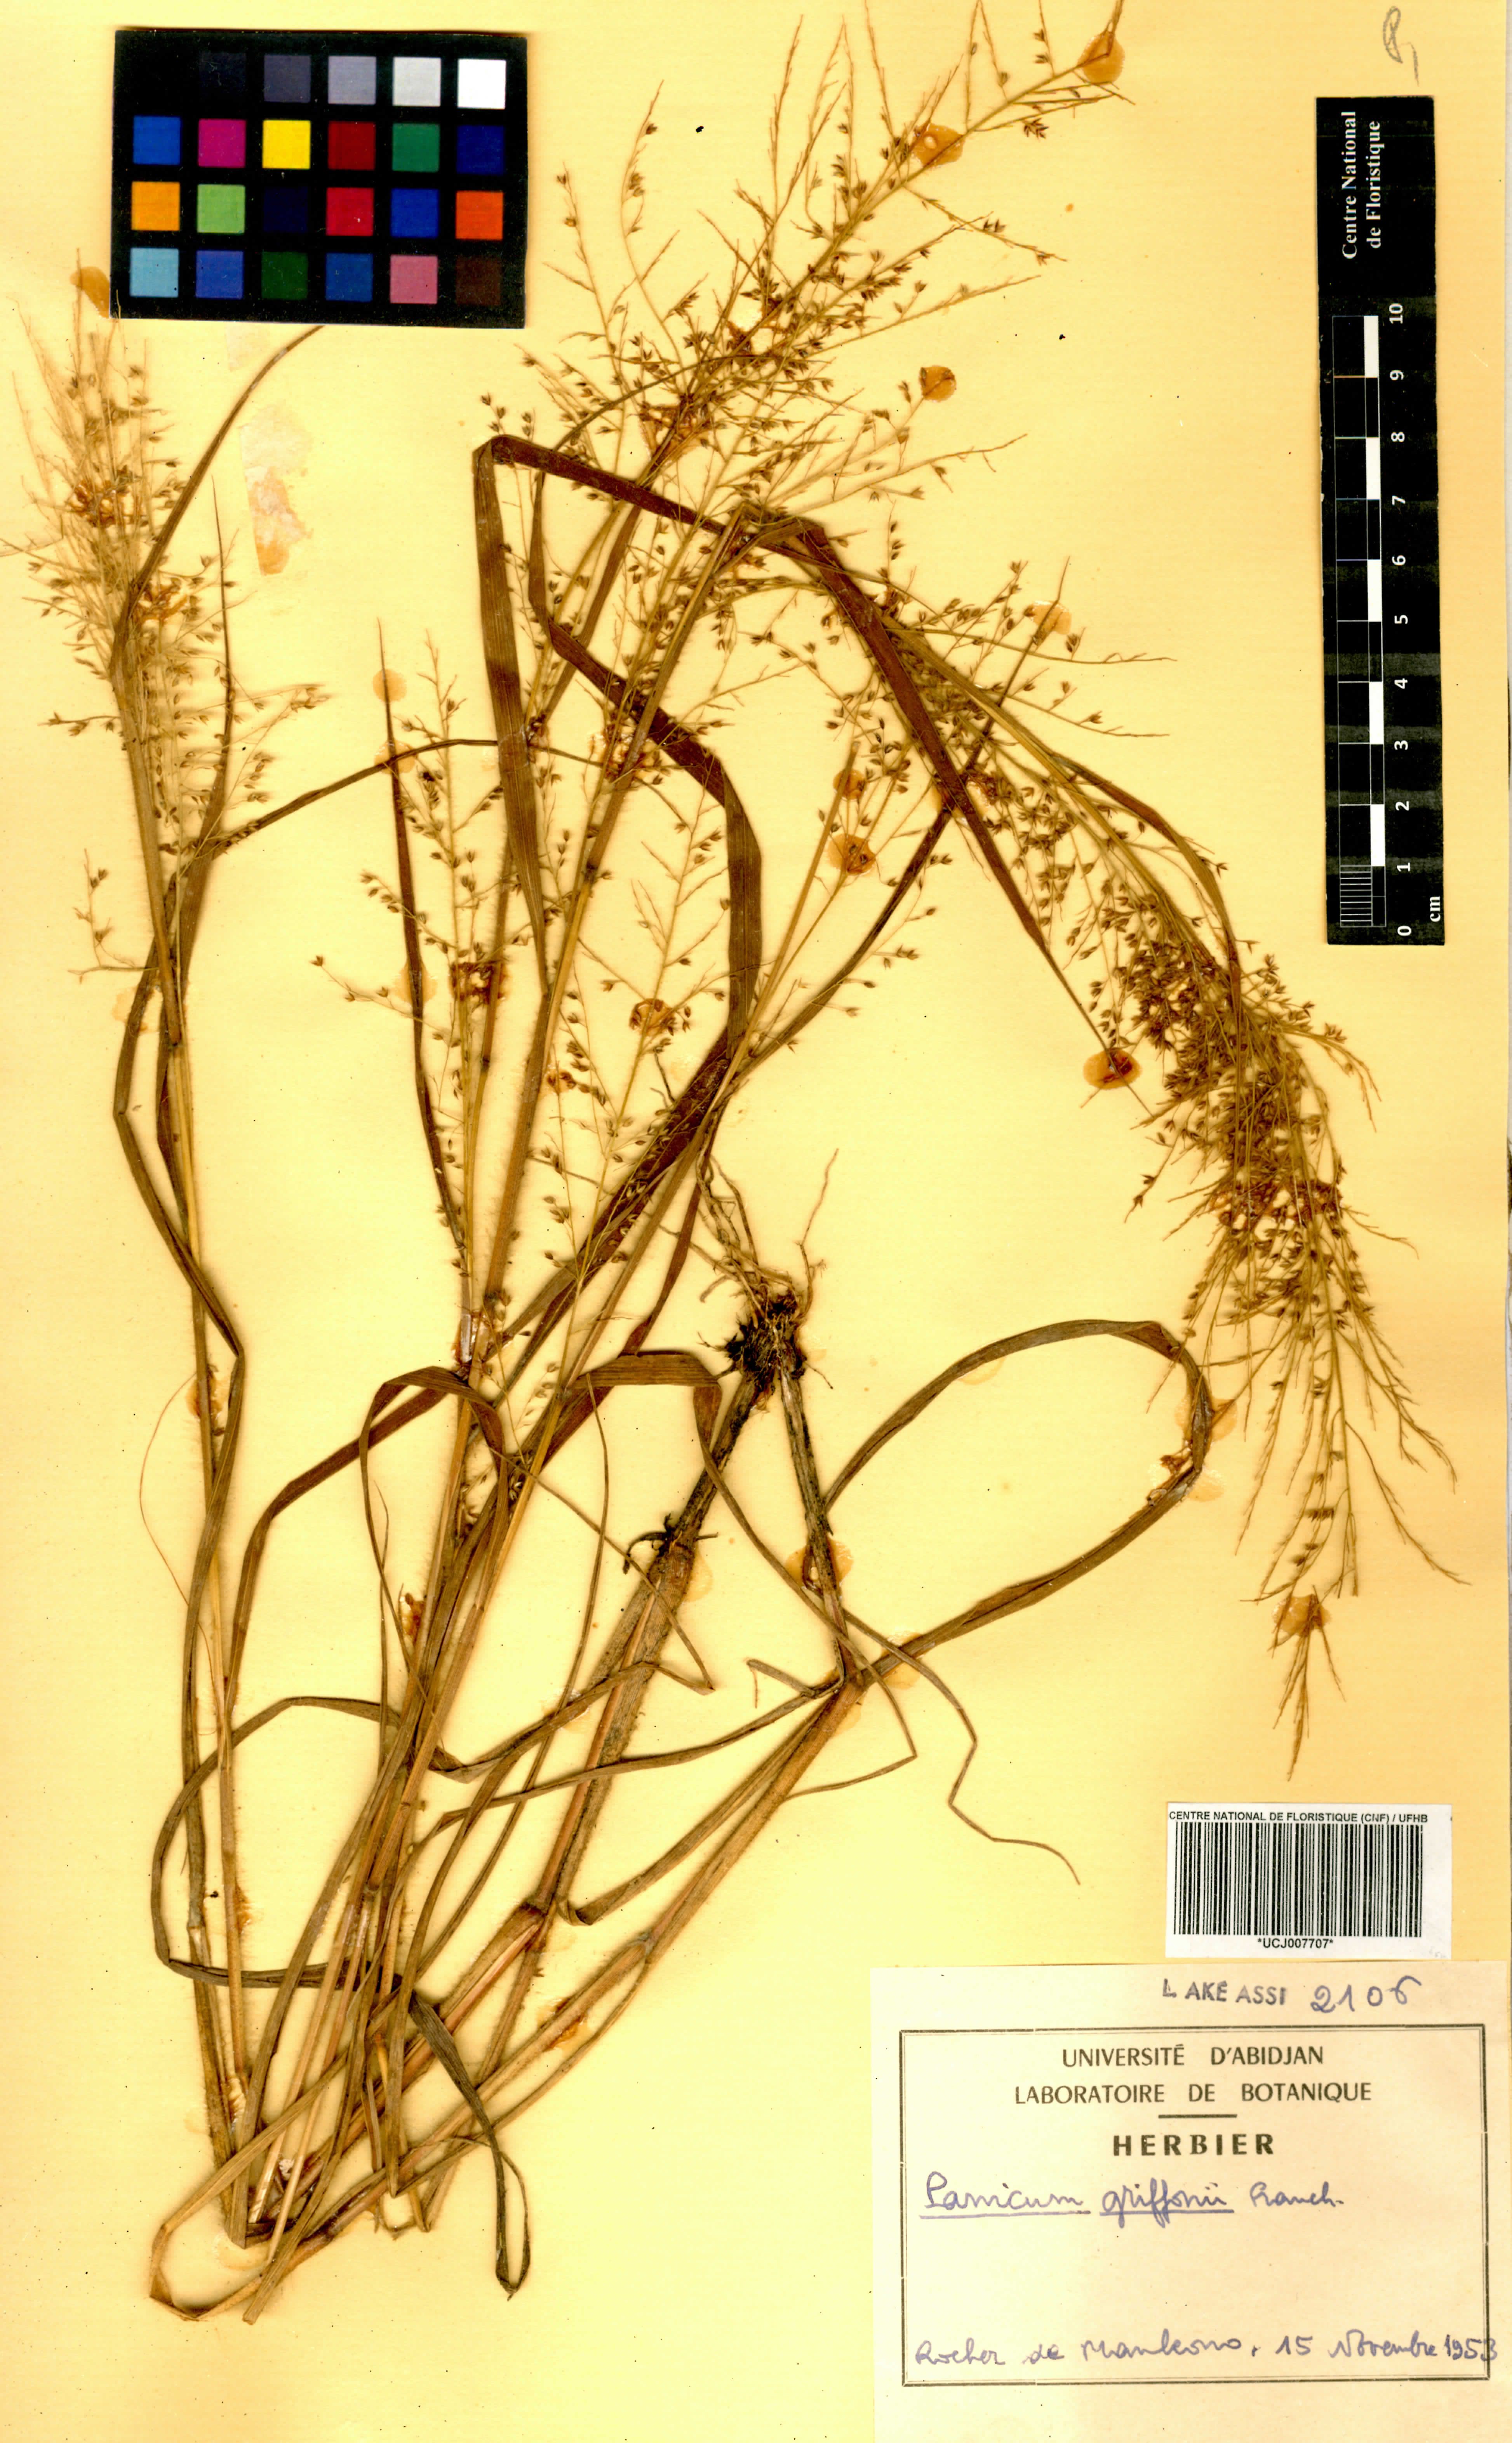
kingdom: Plantae
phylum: Tracheophyta
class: Liliopsida
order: Poales
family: Poaceae
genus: Panicum
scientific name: Panicum griffonii
